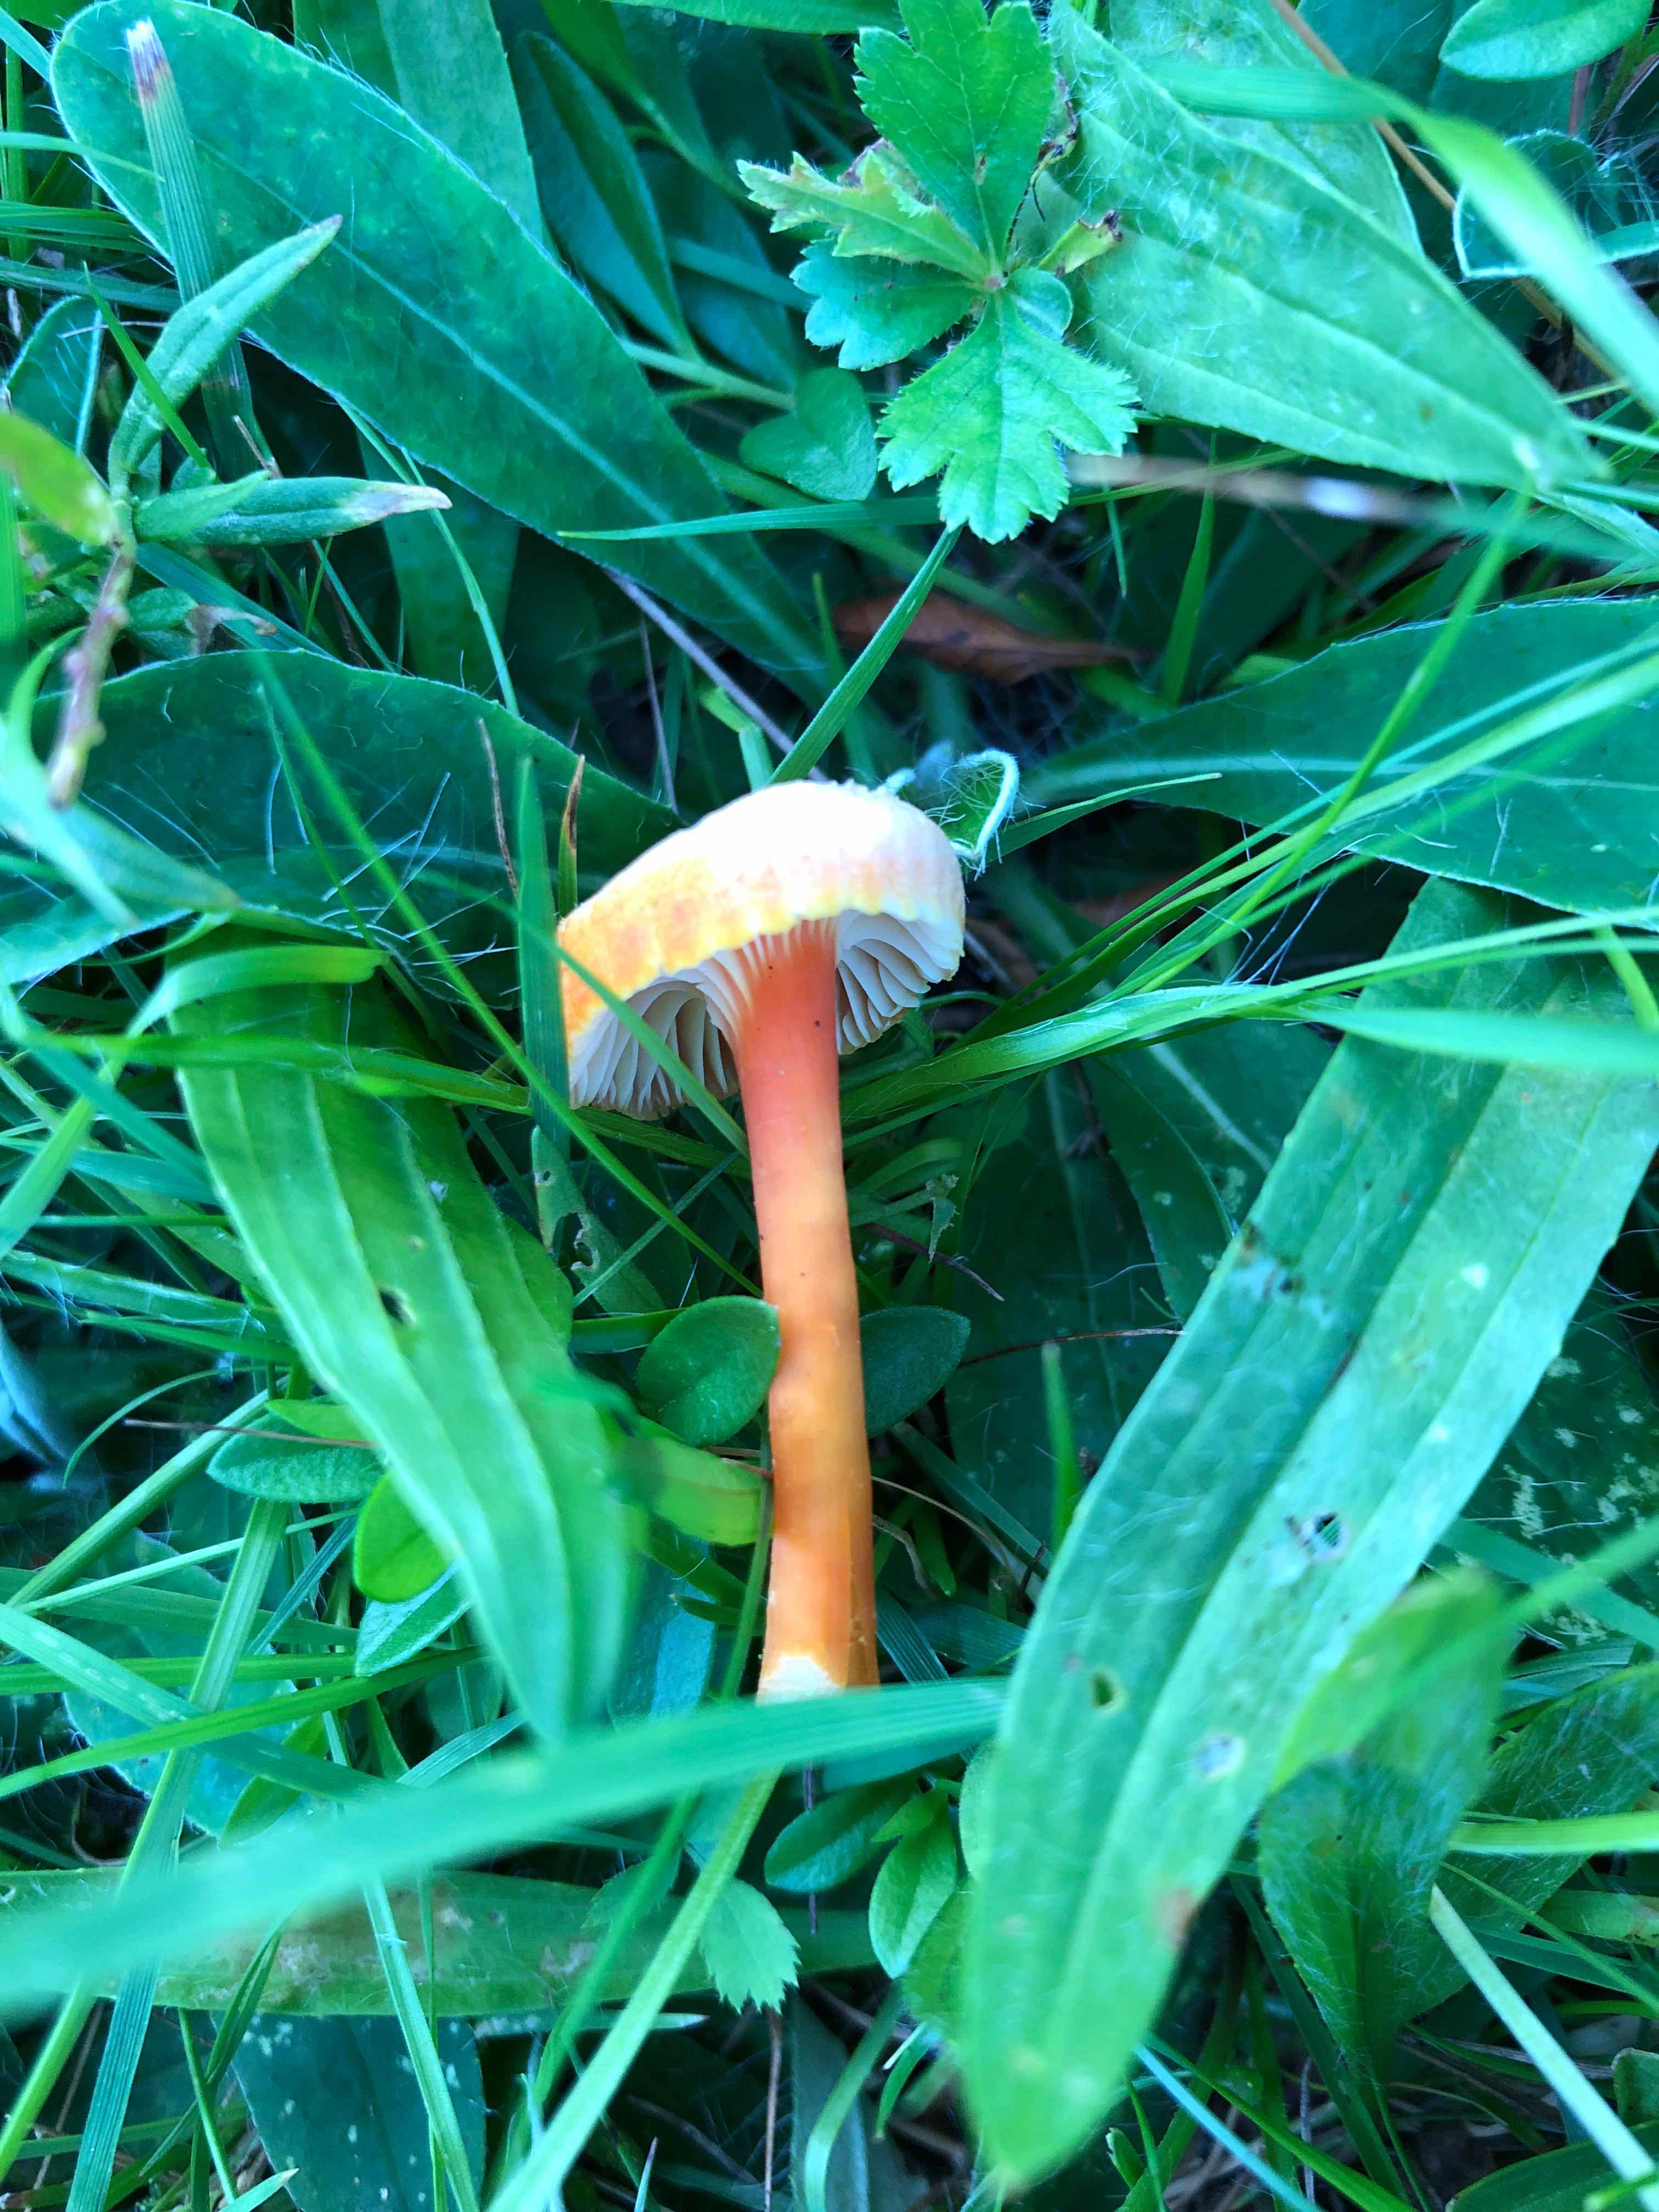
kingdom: Fungi
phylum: Basidiomycota
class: Agaricomycetes
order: Agaricales
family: Hygrophoraceae
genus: Hygrocybe
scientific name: Hygrocybe cantharellus
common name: kantarel-vokshat
